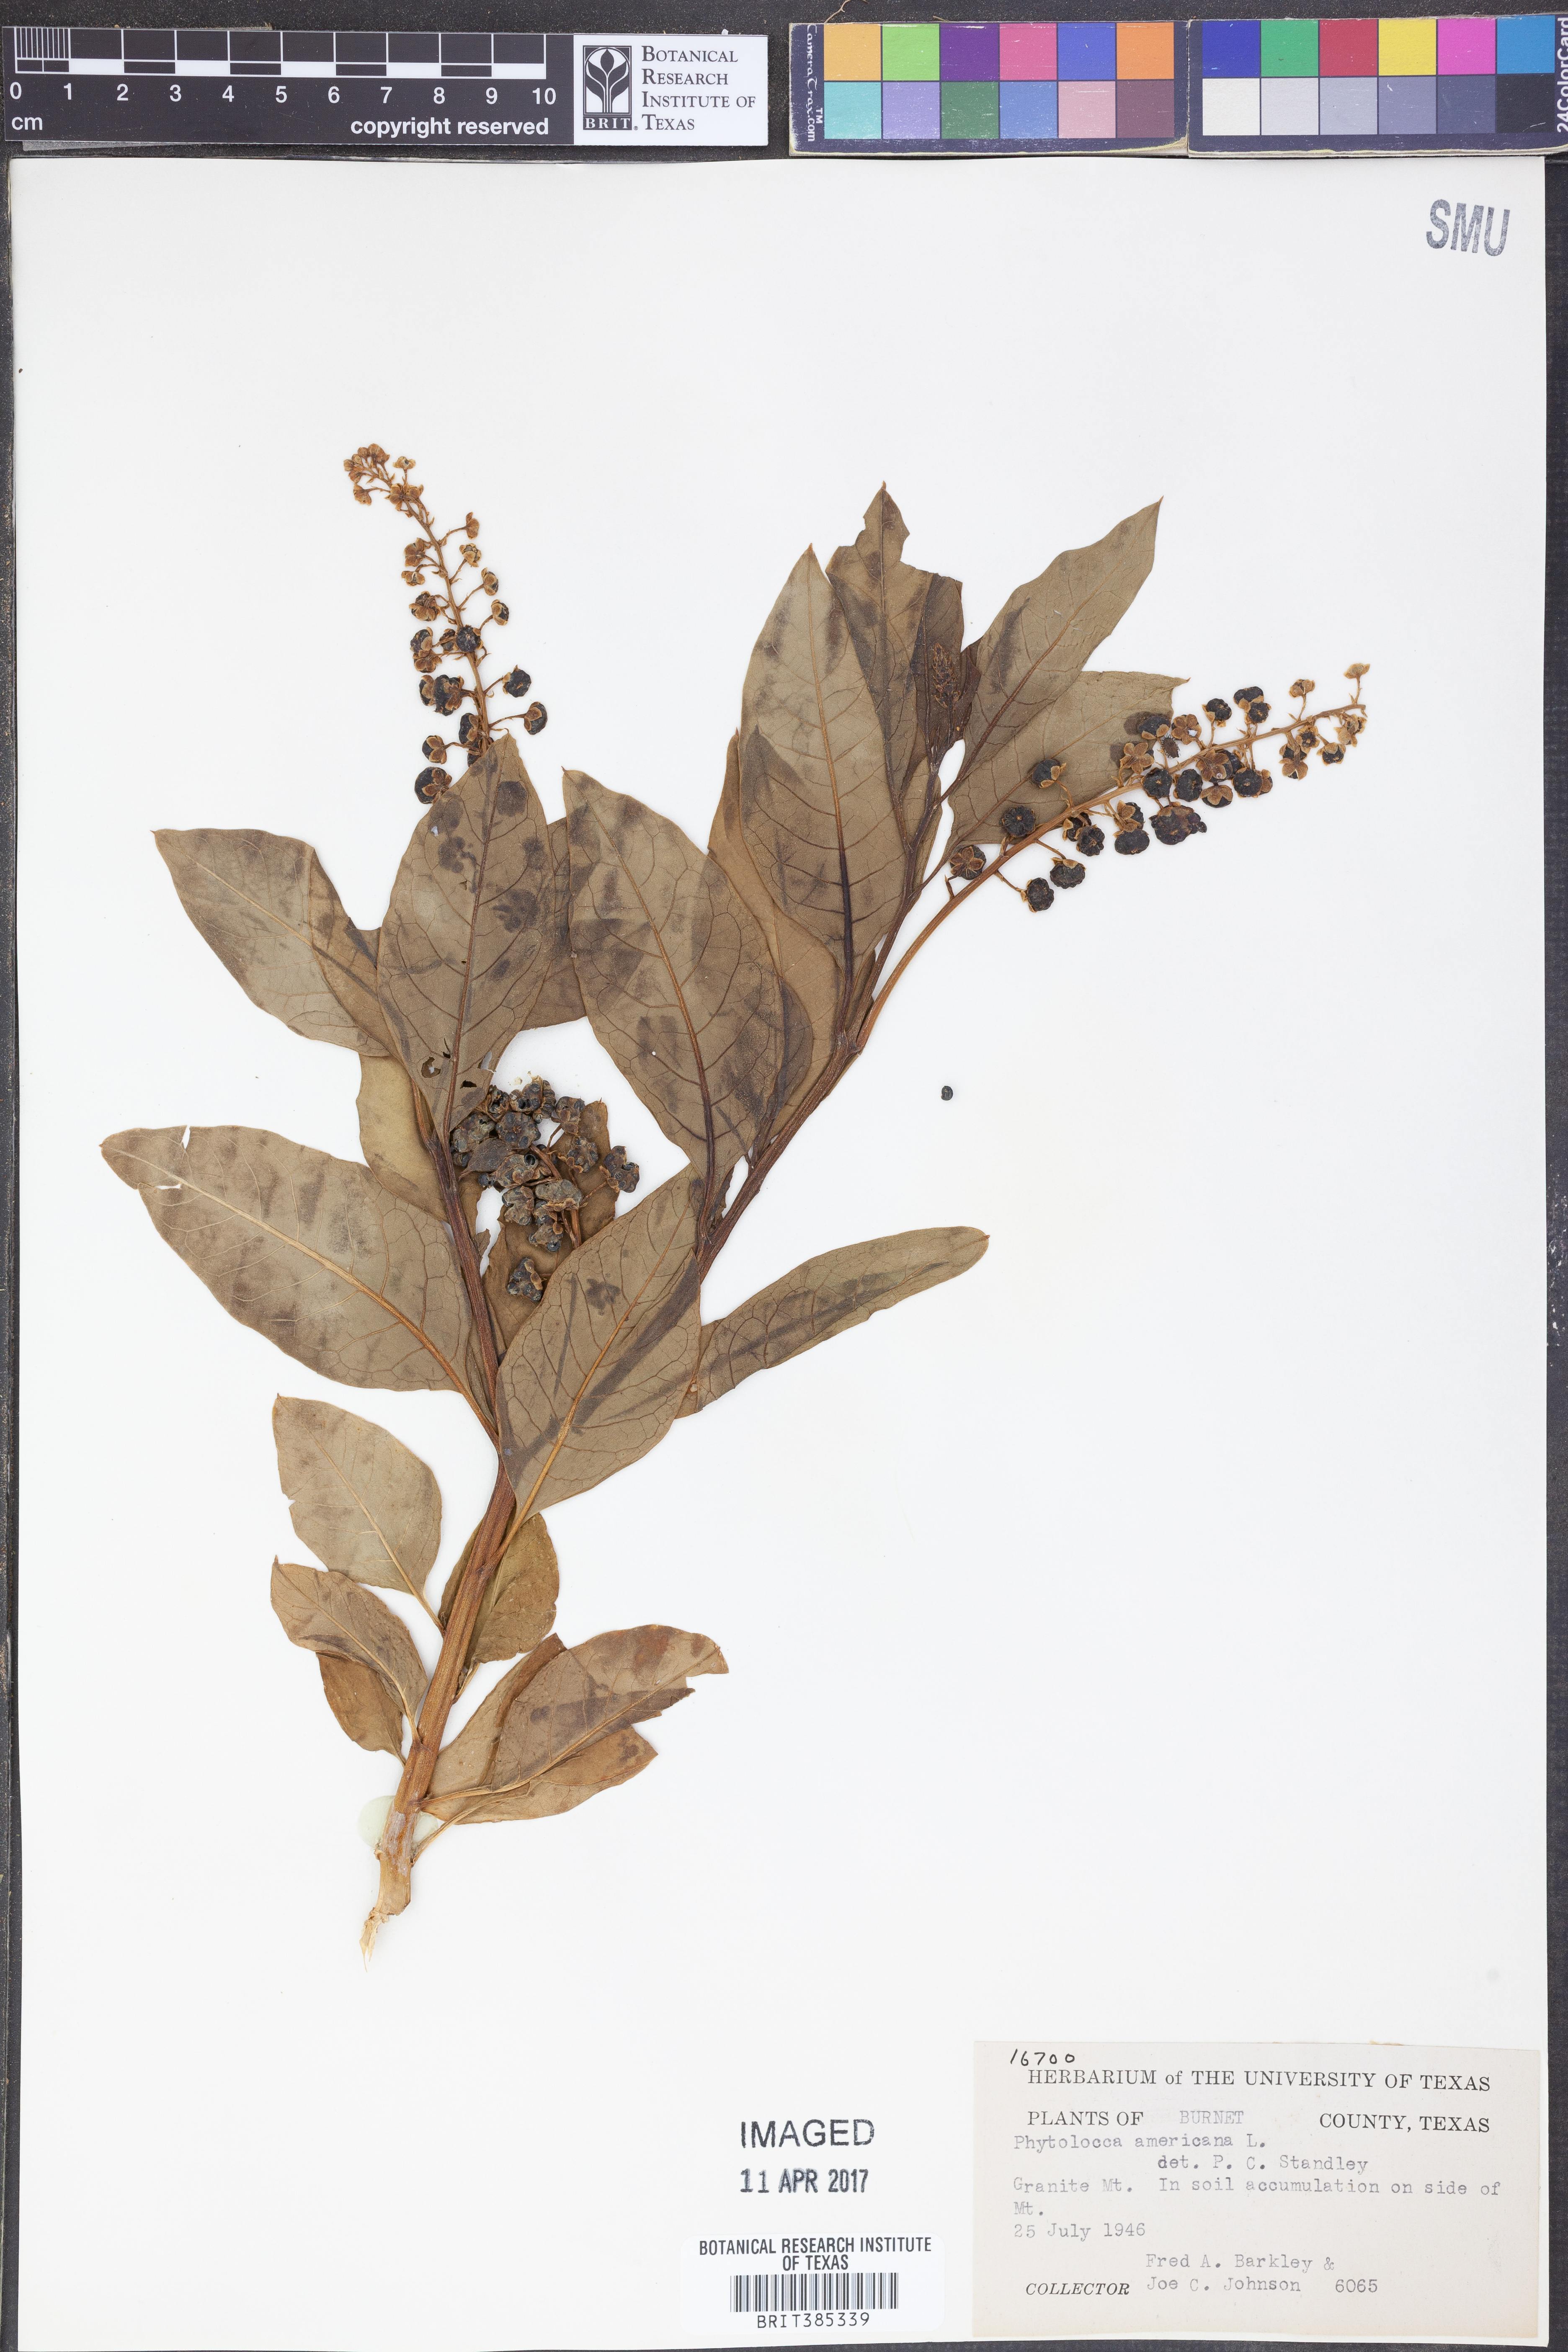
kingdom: Plantae
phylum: Tracheophyta
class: Magnoliopsida
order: Caryophyllales
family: Phytolaccaceae
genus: Phytolacca
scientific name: Phytolacca americana
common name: American pokeweed
